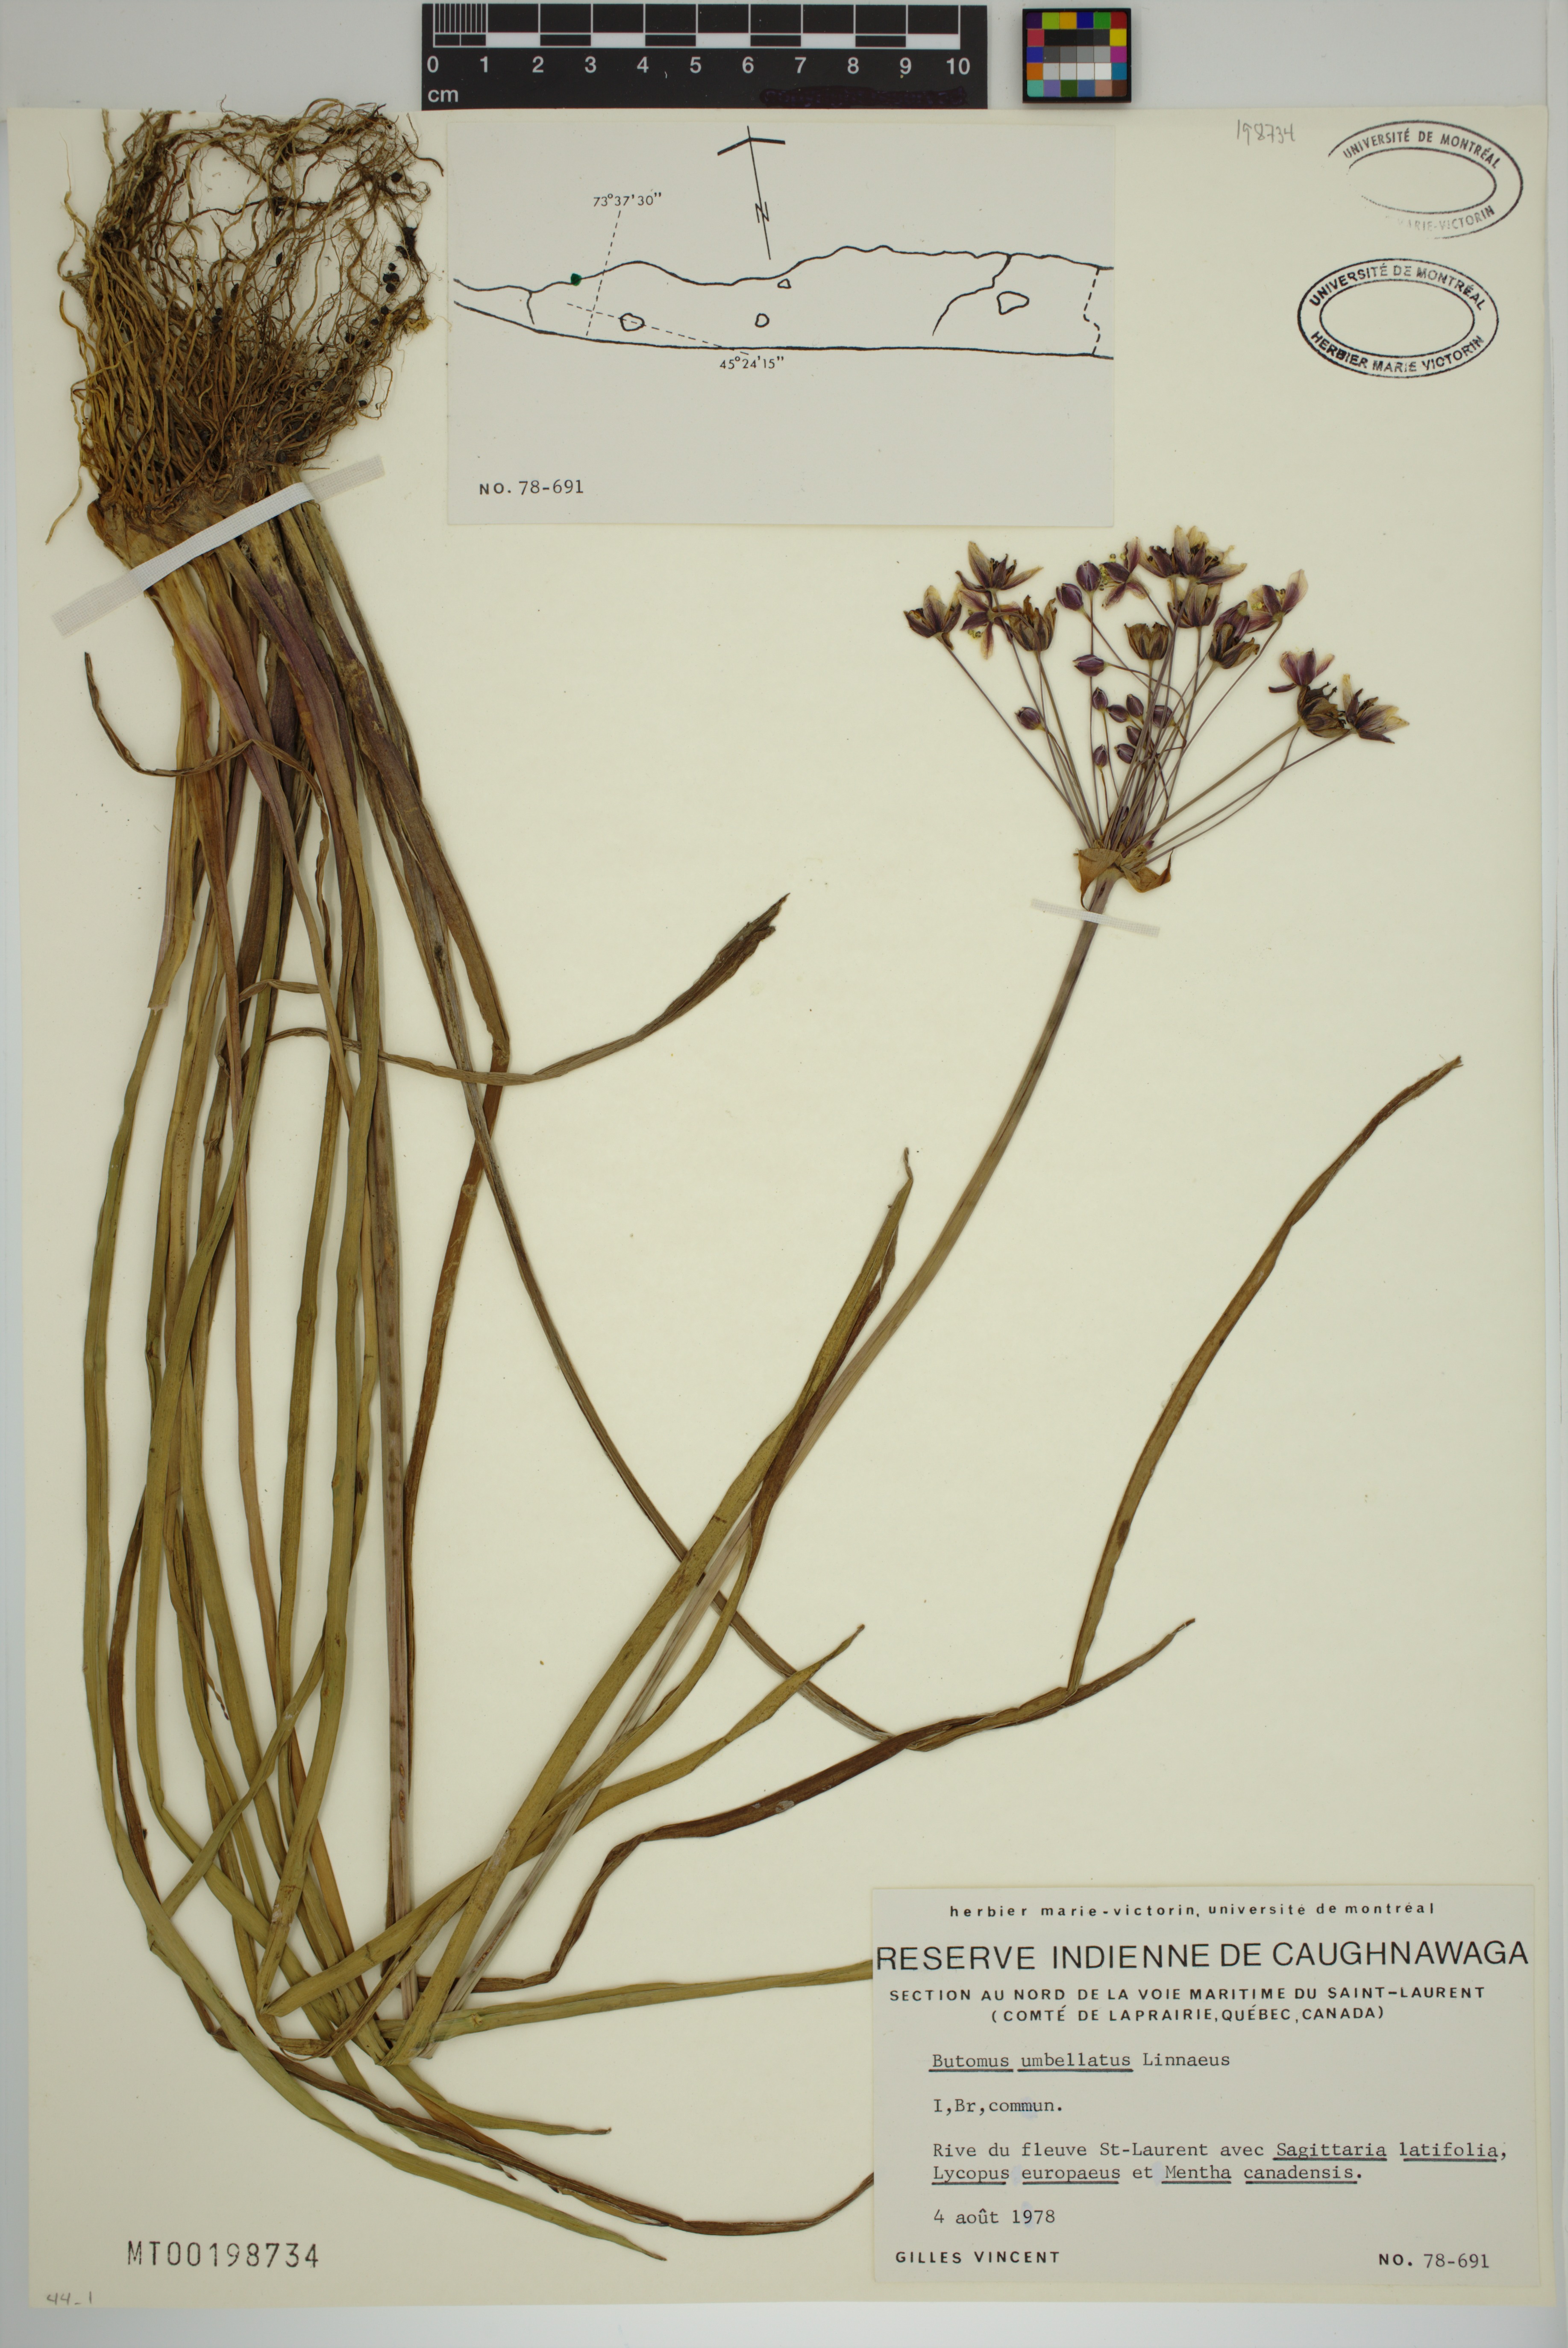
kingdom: Plantae
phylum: Tracheophyta
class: Liliopsida
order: Alismatales
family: Butomaceae
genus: Butomus
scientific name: Butomus umbellatus
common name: Flowering-rush
